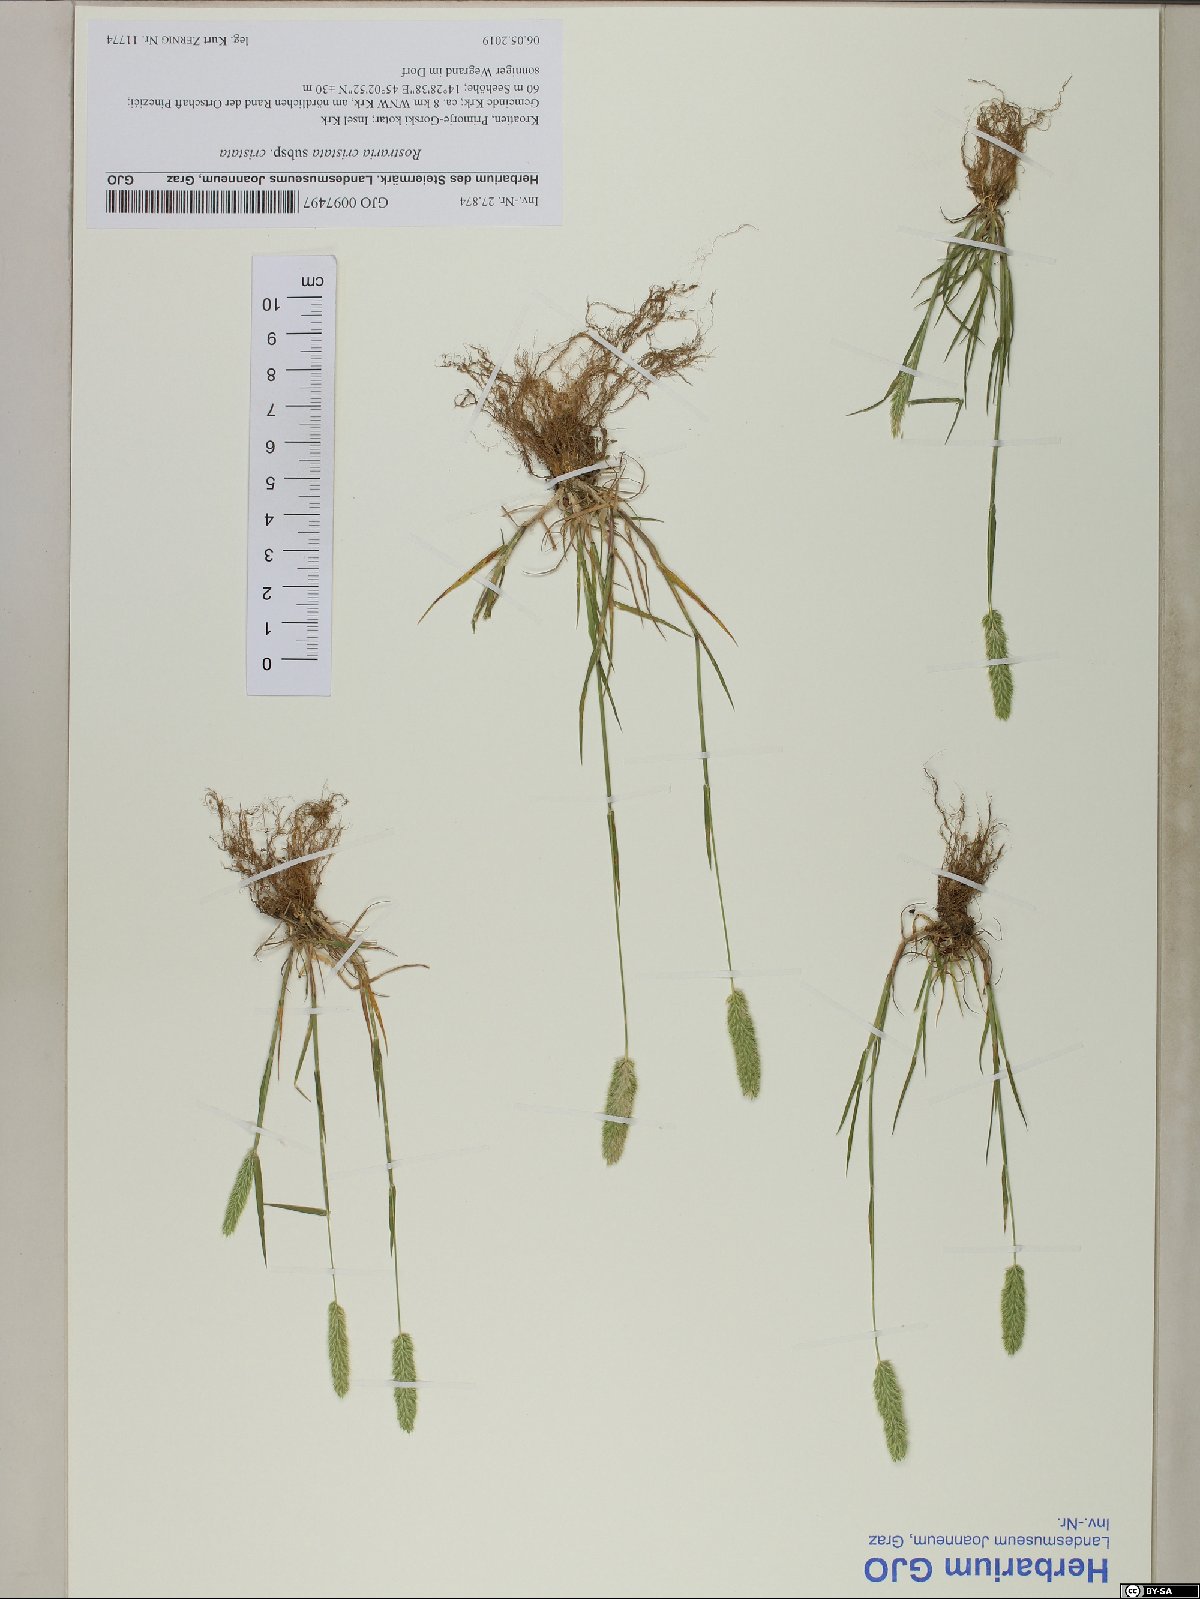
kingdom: Plantae
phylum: Tracheophyta
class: Liliopsida
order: Poales
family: Poaceae
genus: Rostraria
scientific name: Rostraria cristata
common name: Mediterranean hair-grass
